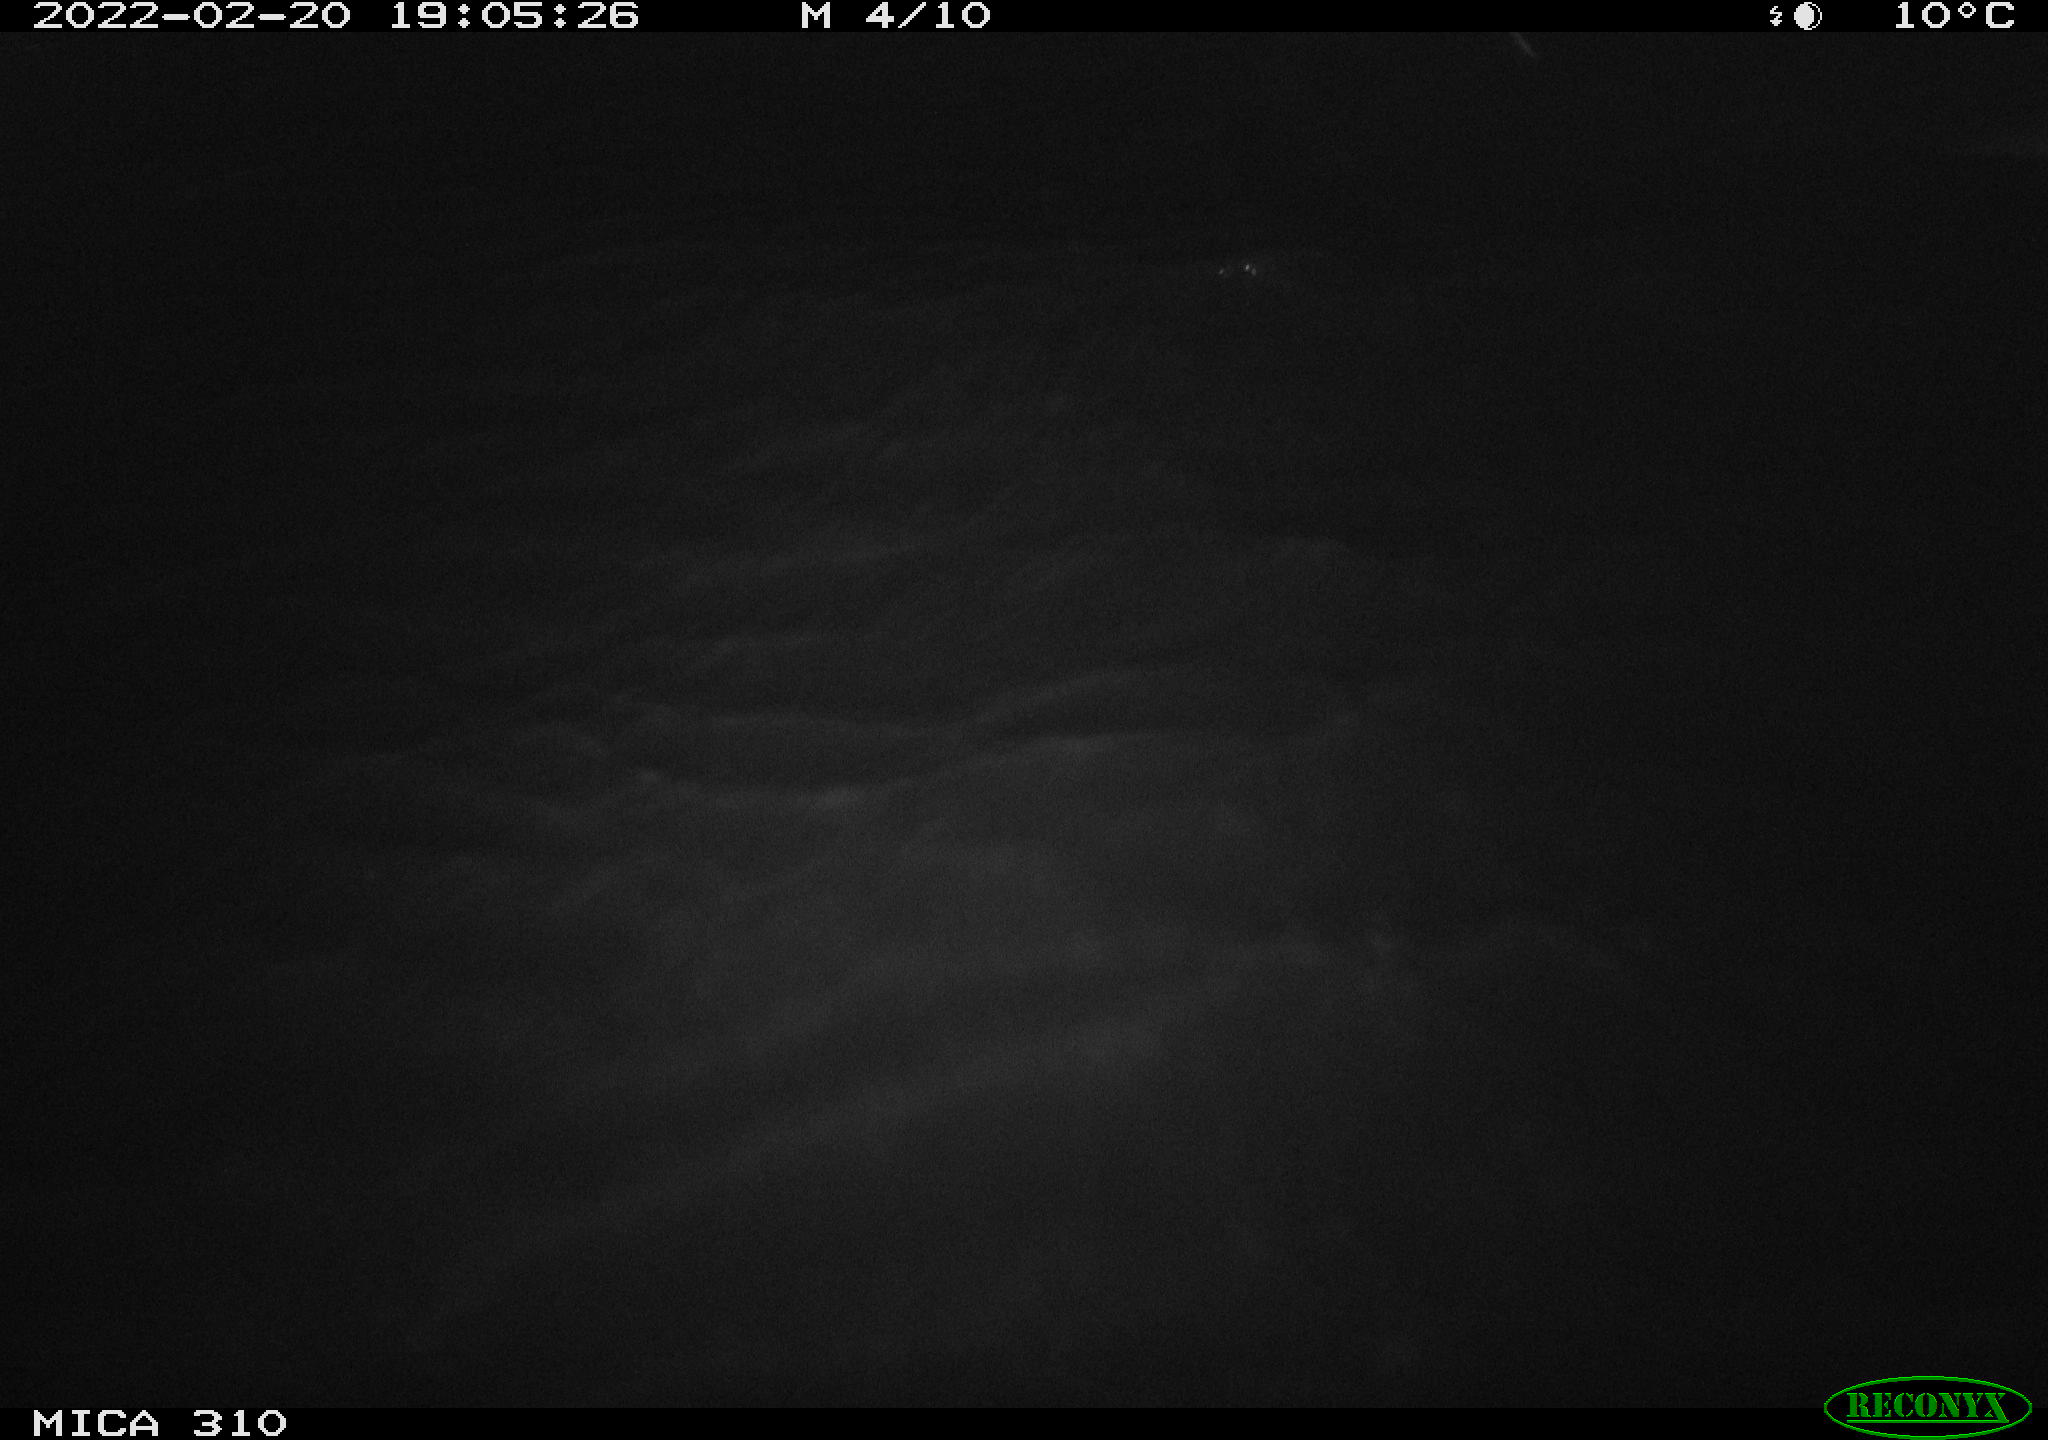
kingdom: Animalia
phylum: Chordata
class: Mammalia
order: Rodentia
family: Cricetidae
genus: Ondatra
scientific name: Ondatra zibethicus
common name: Muskrat
